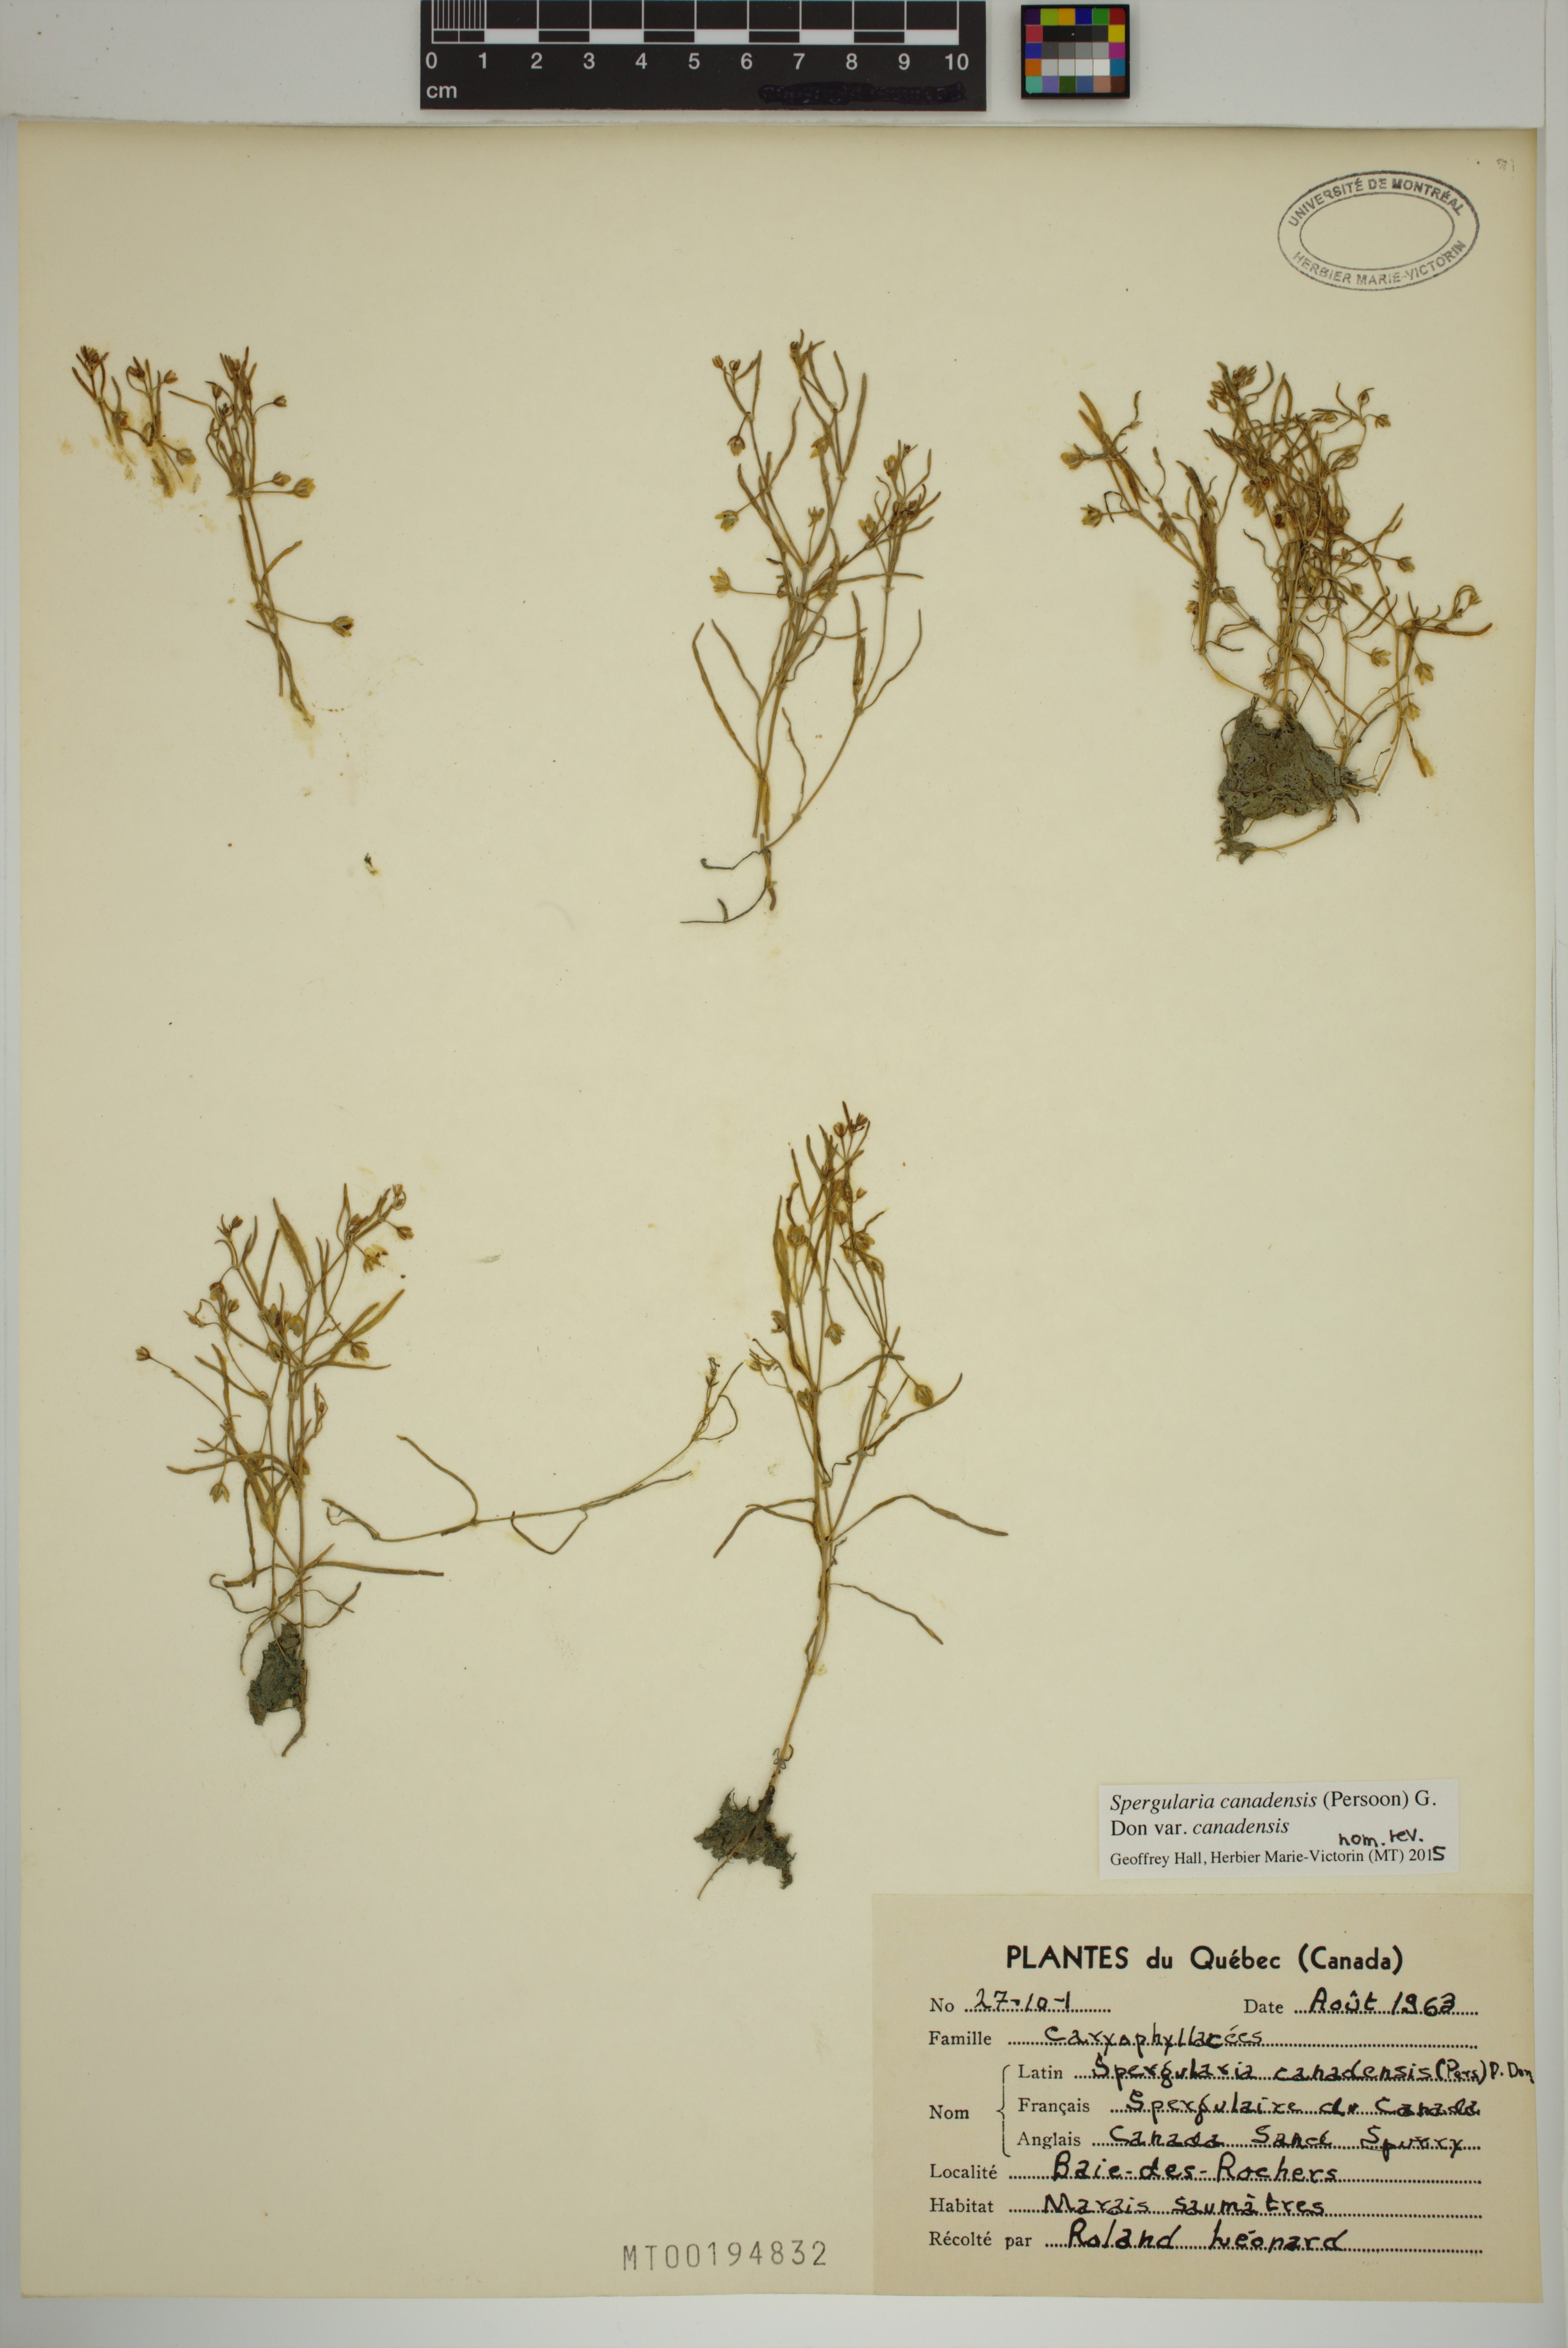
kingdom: Plantae
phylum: Tracheophyta
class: Magnoliopsida
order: Caryophyllales
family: Caryophyllaceae
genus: Spergularia
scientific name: Spergularia canadensis
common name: Canada sand-spurrey
